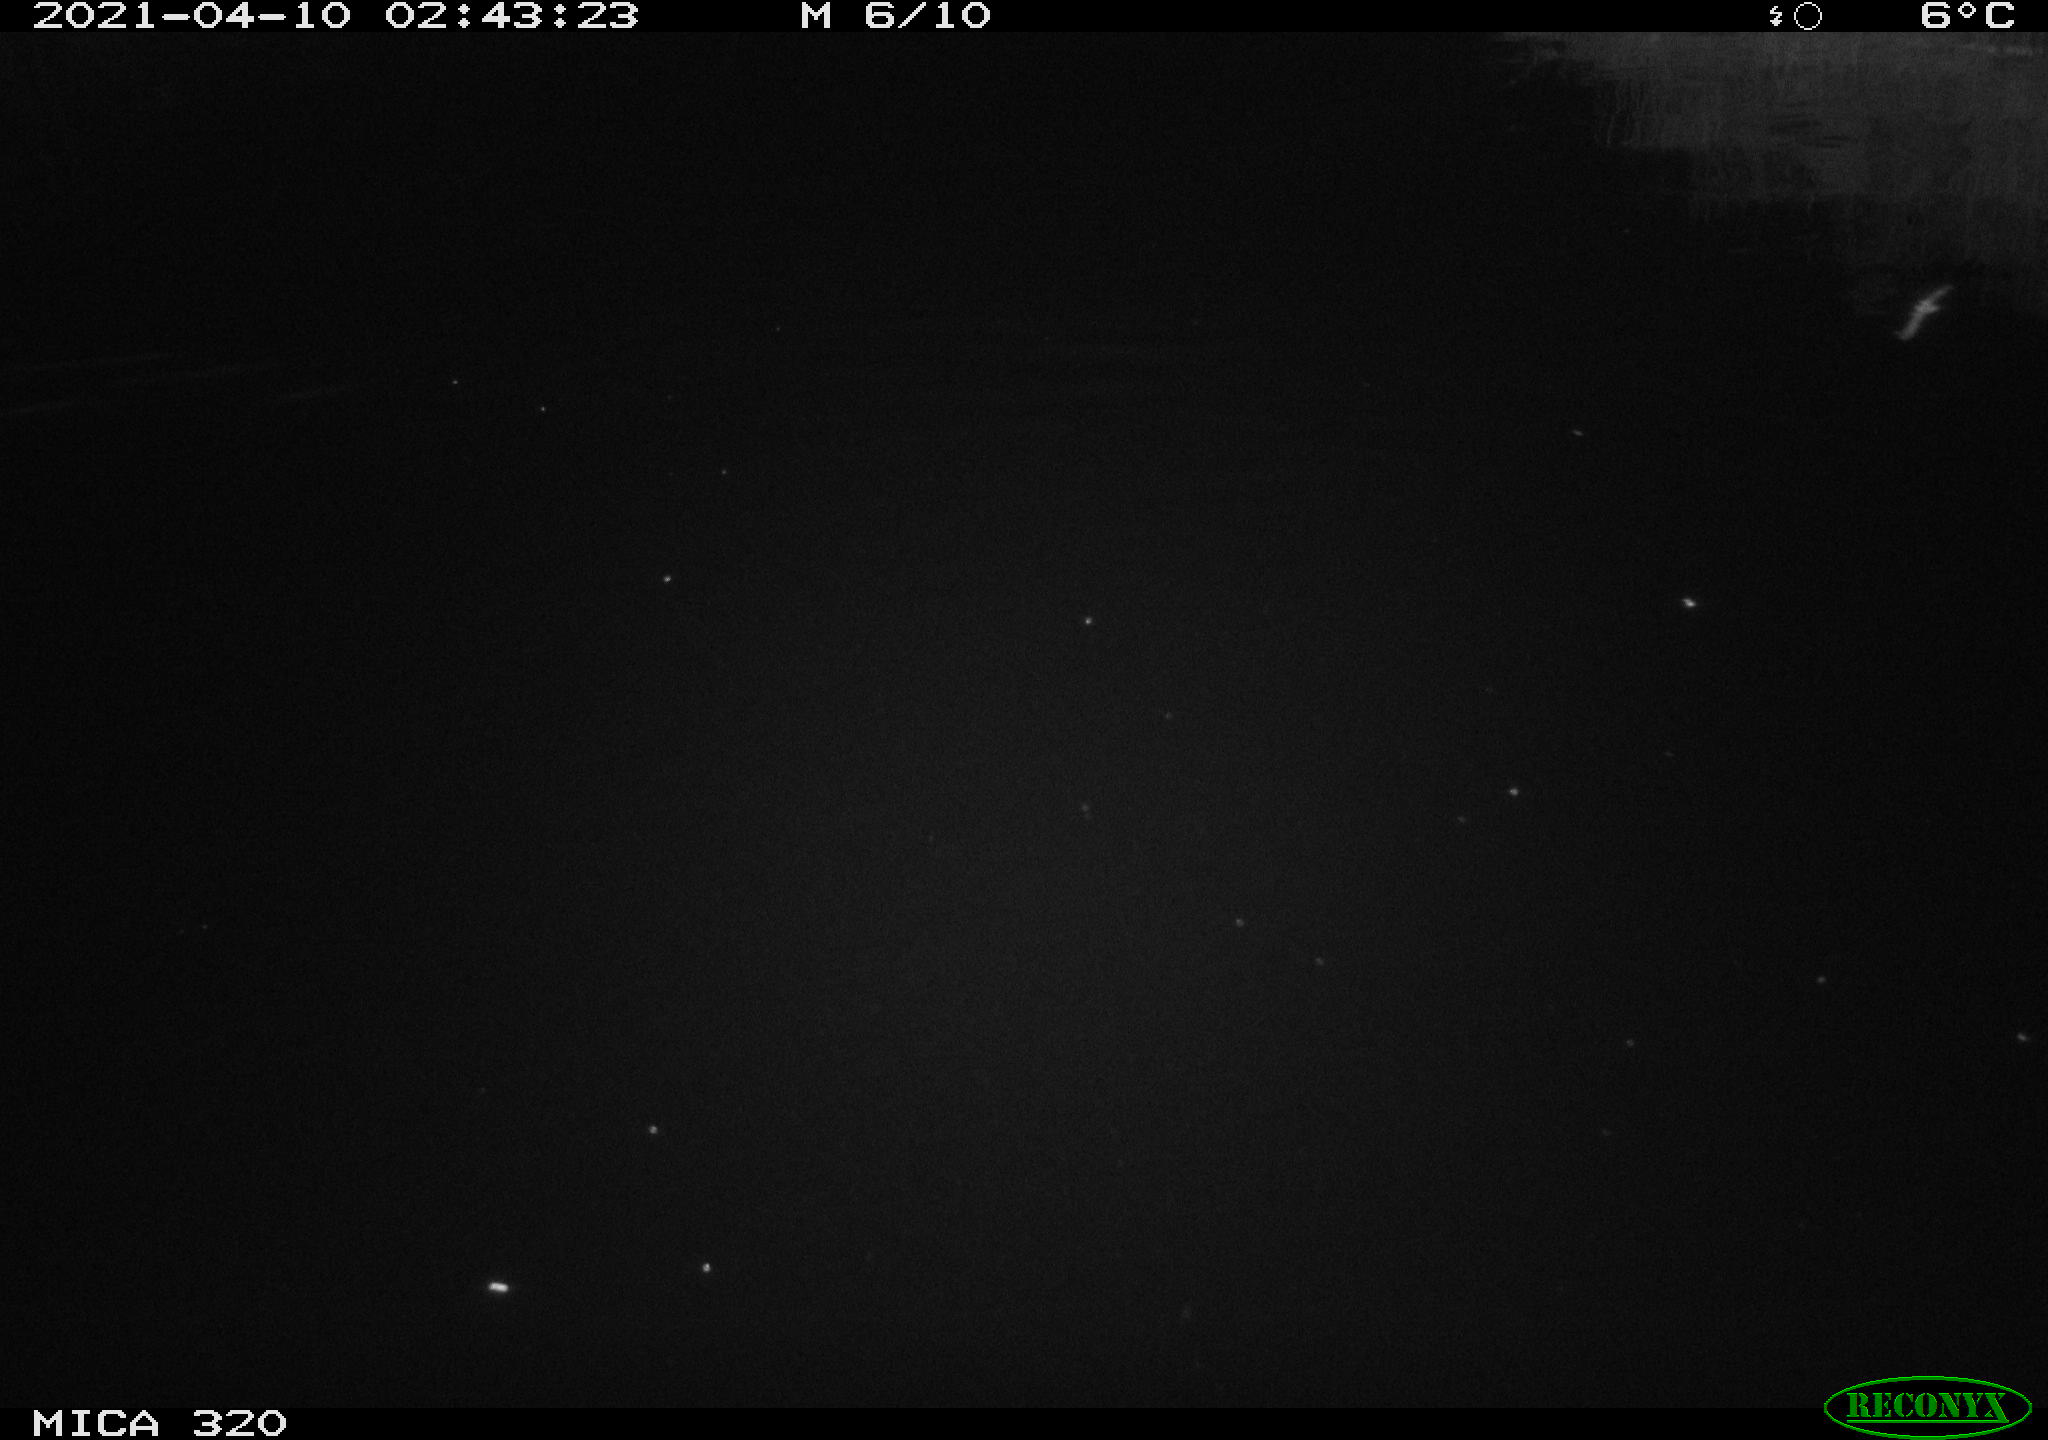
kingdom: Animalia
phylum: Chordata
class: Aves
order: Anseriformes
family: Anatidae
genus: Anas
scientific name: Anas platyrhynchos
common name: Mallard
